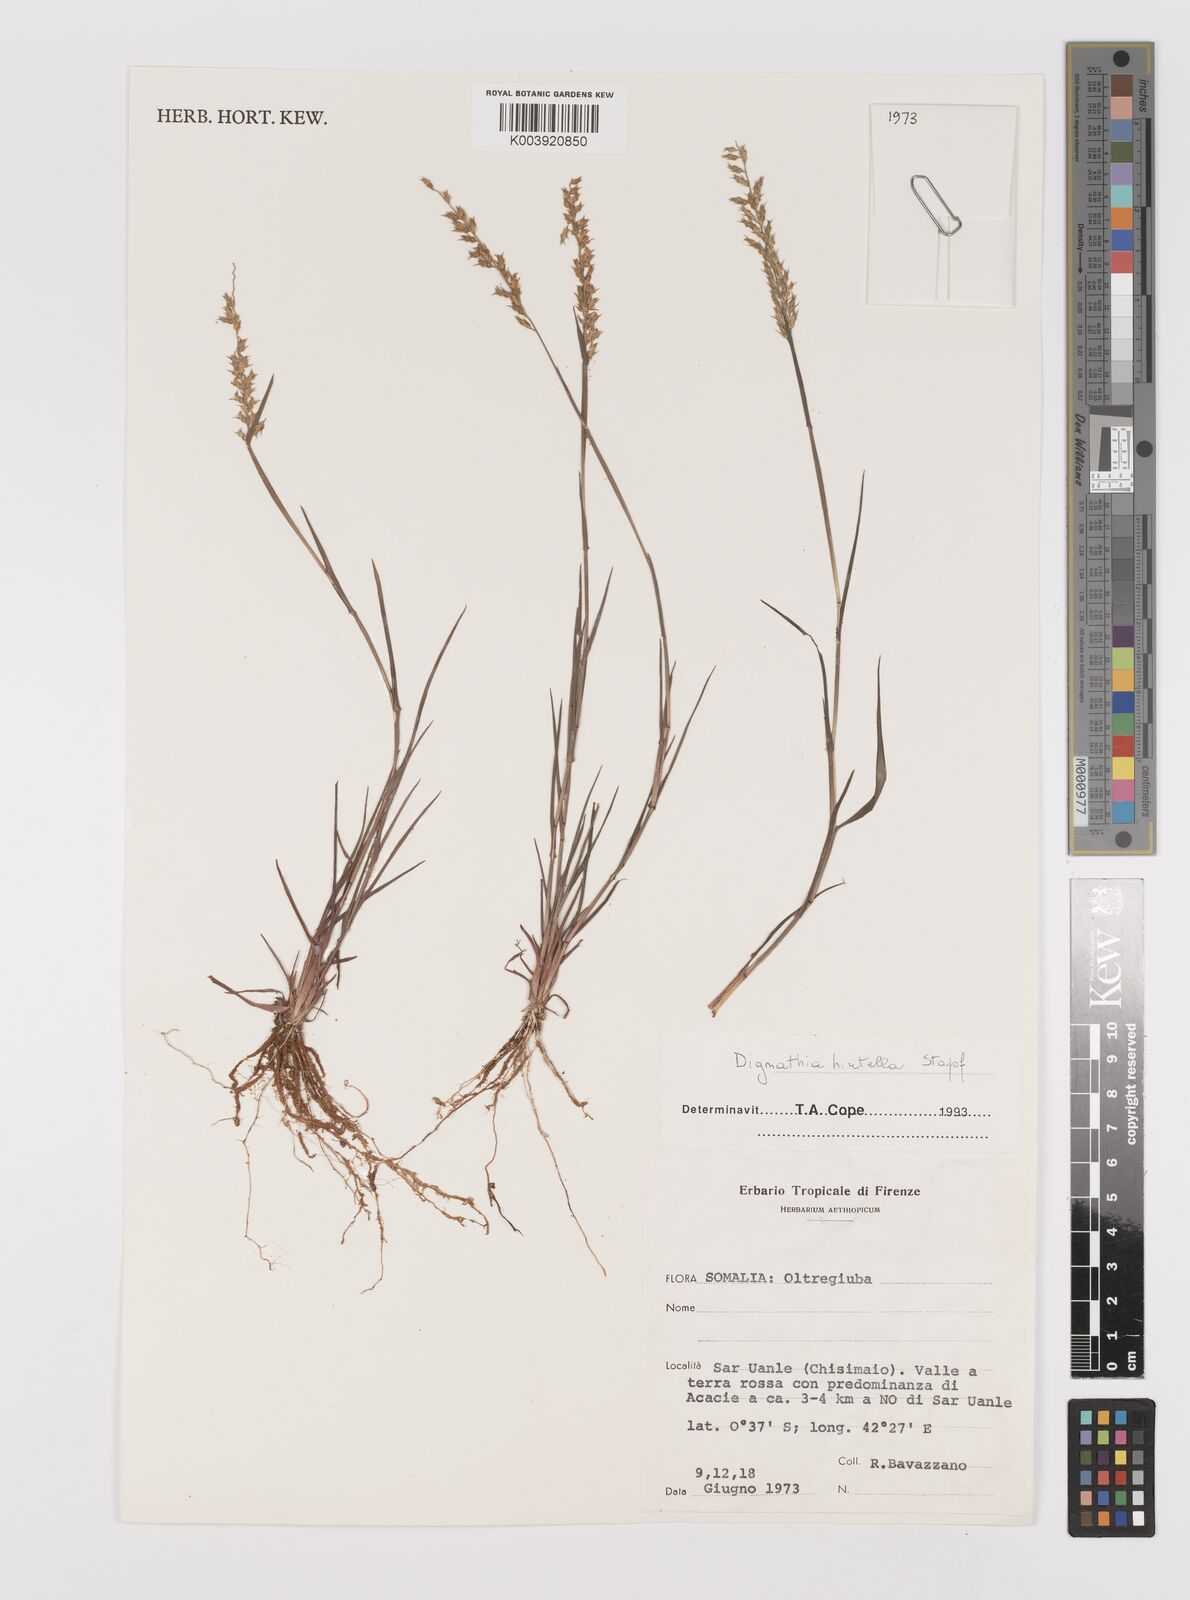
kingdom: Plantae
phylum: Tracheophyta
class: Liliopsida
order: Poales
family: Poaceae
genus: Dignathia
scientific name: Dignathia hirtella
